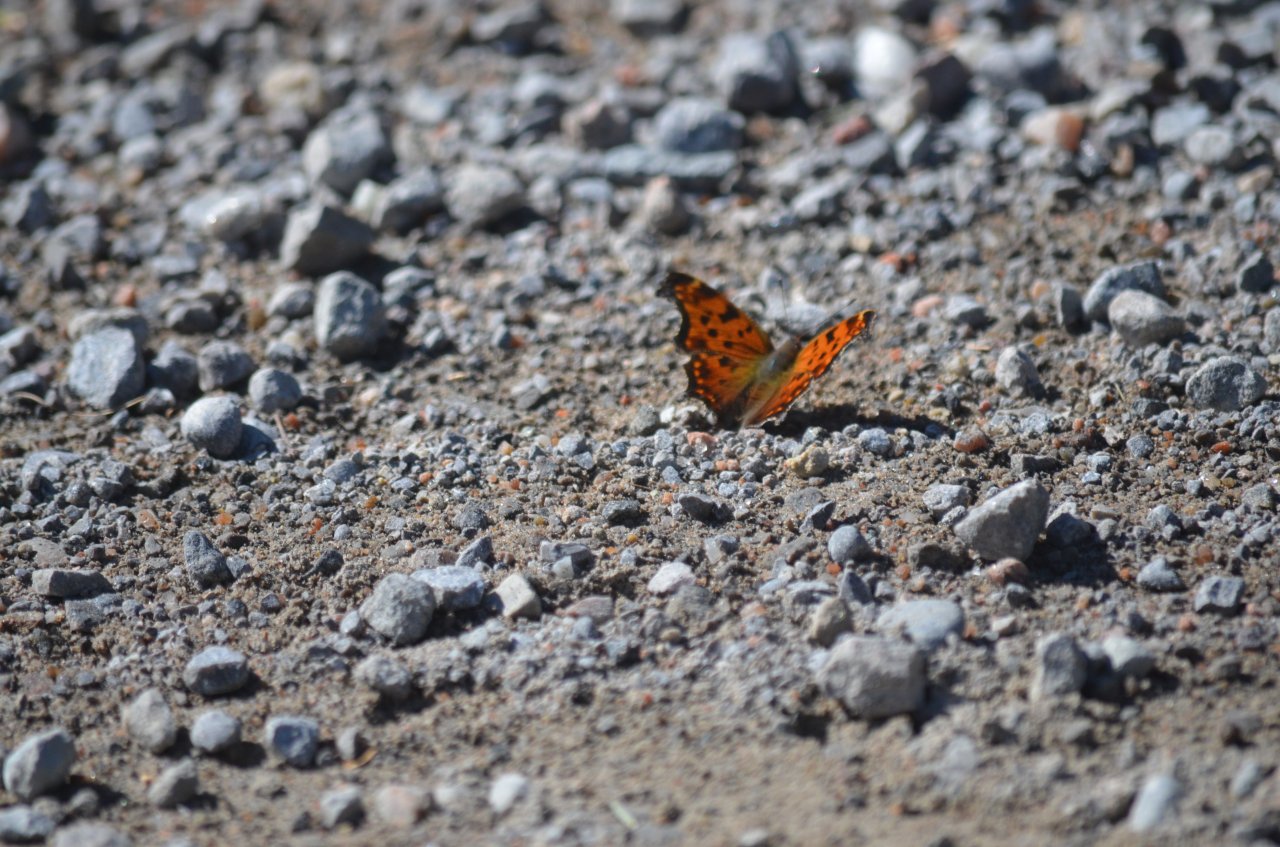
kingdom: Animalia
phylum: Arthropoda
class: Insecta
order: Lepidoptera
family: Nymphalidae
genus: Polygonia
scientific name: Polygonia comma
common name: Eastern Comma
